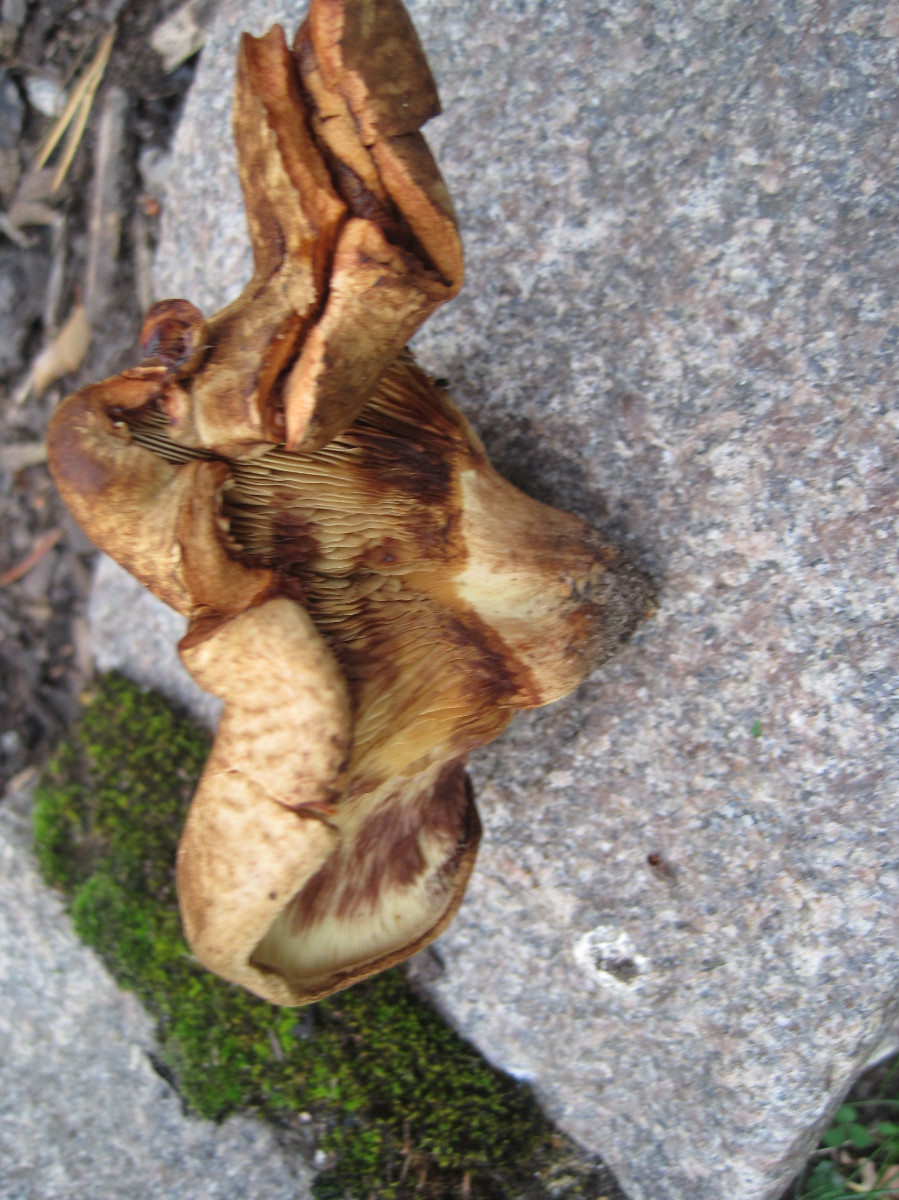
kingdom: Fungi
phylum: Basidiomycota
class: Agaricomycetes
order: Boletales
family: Paxillaceae
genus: Paxillus
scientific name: Paxillus ammoniavirescens
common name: olivensporet netbladhat
